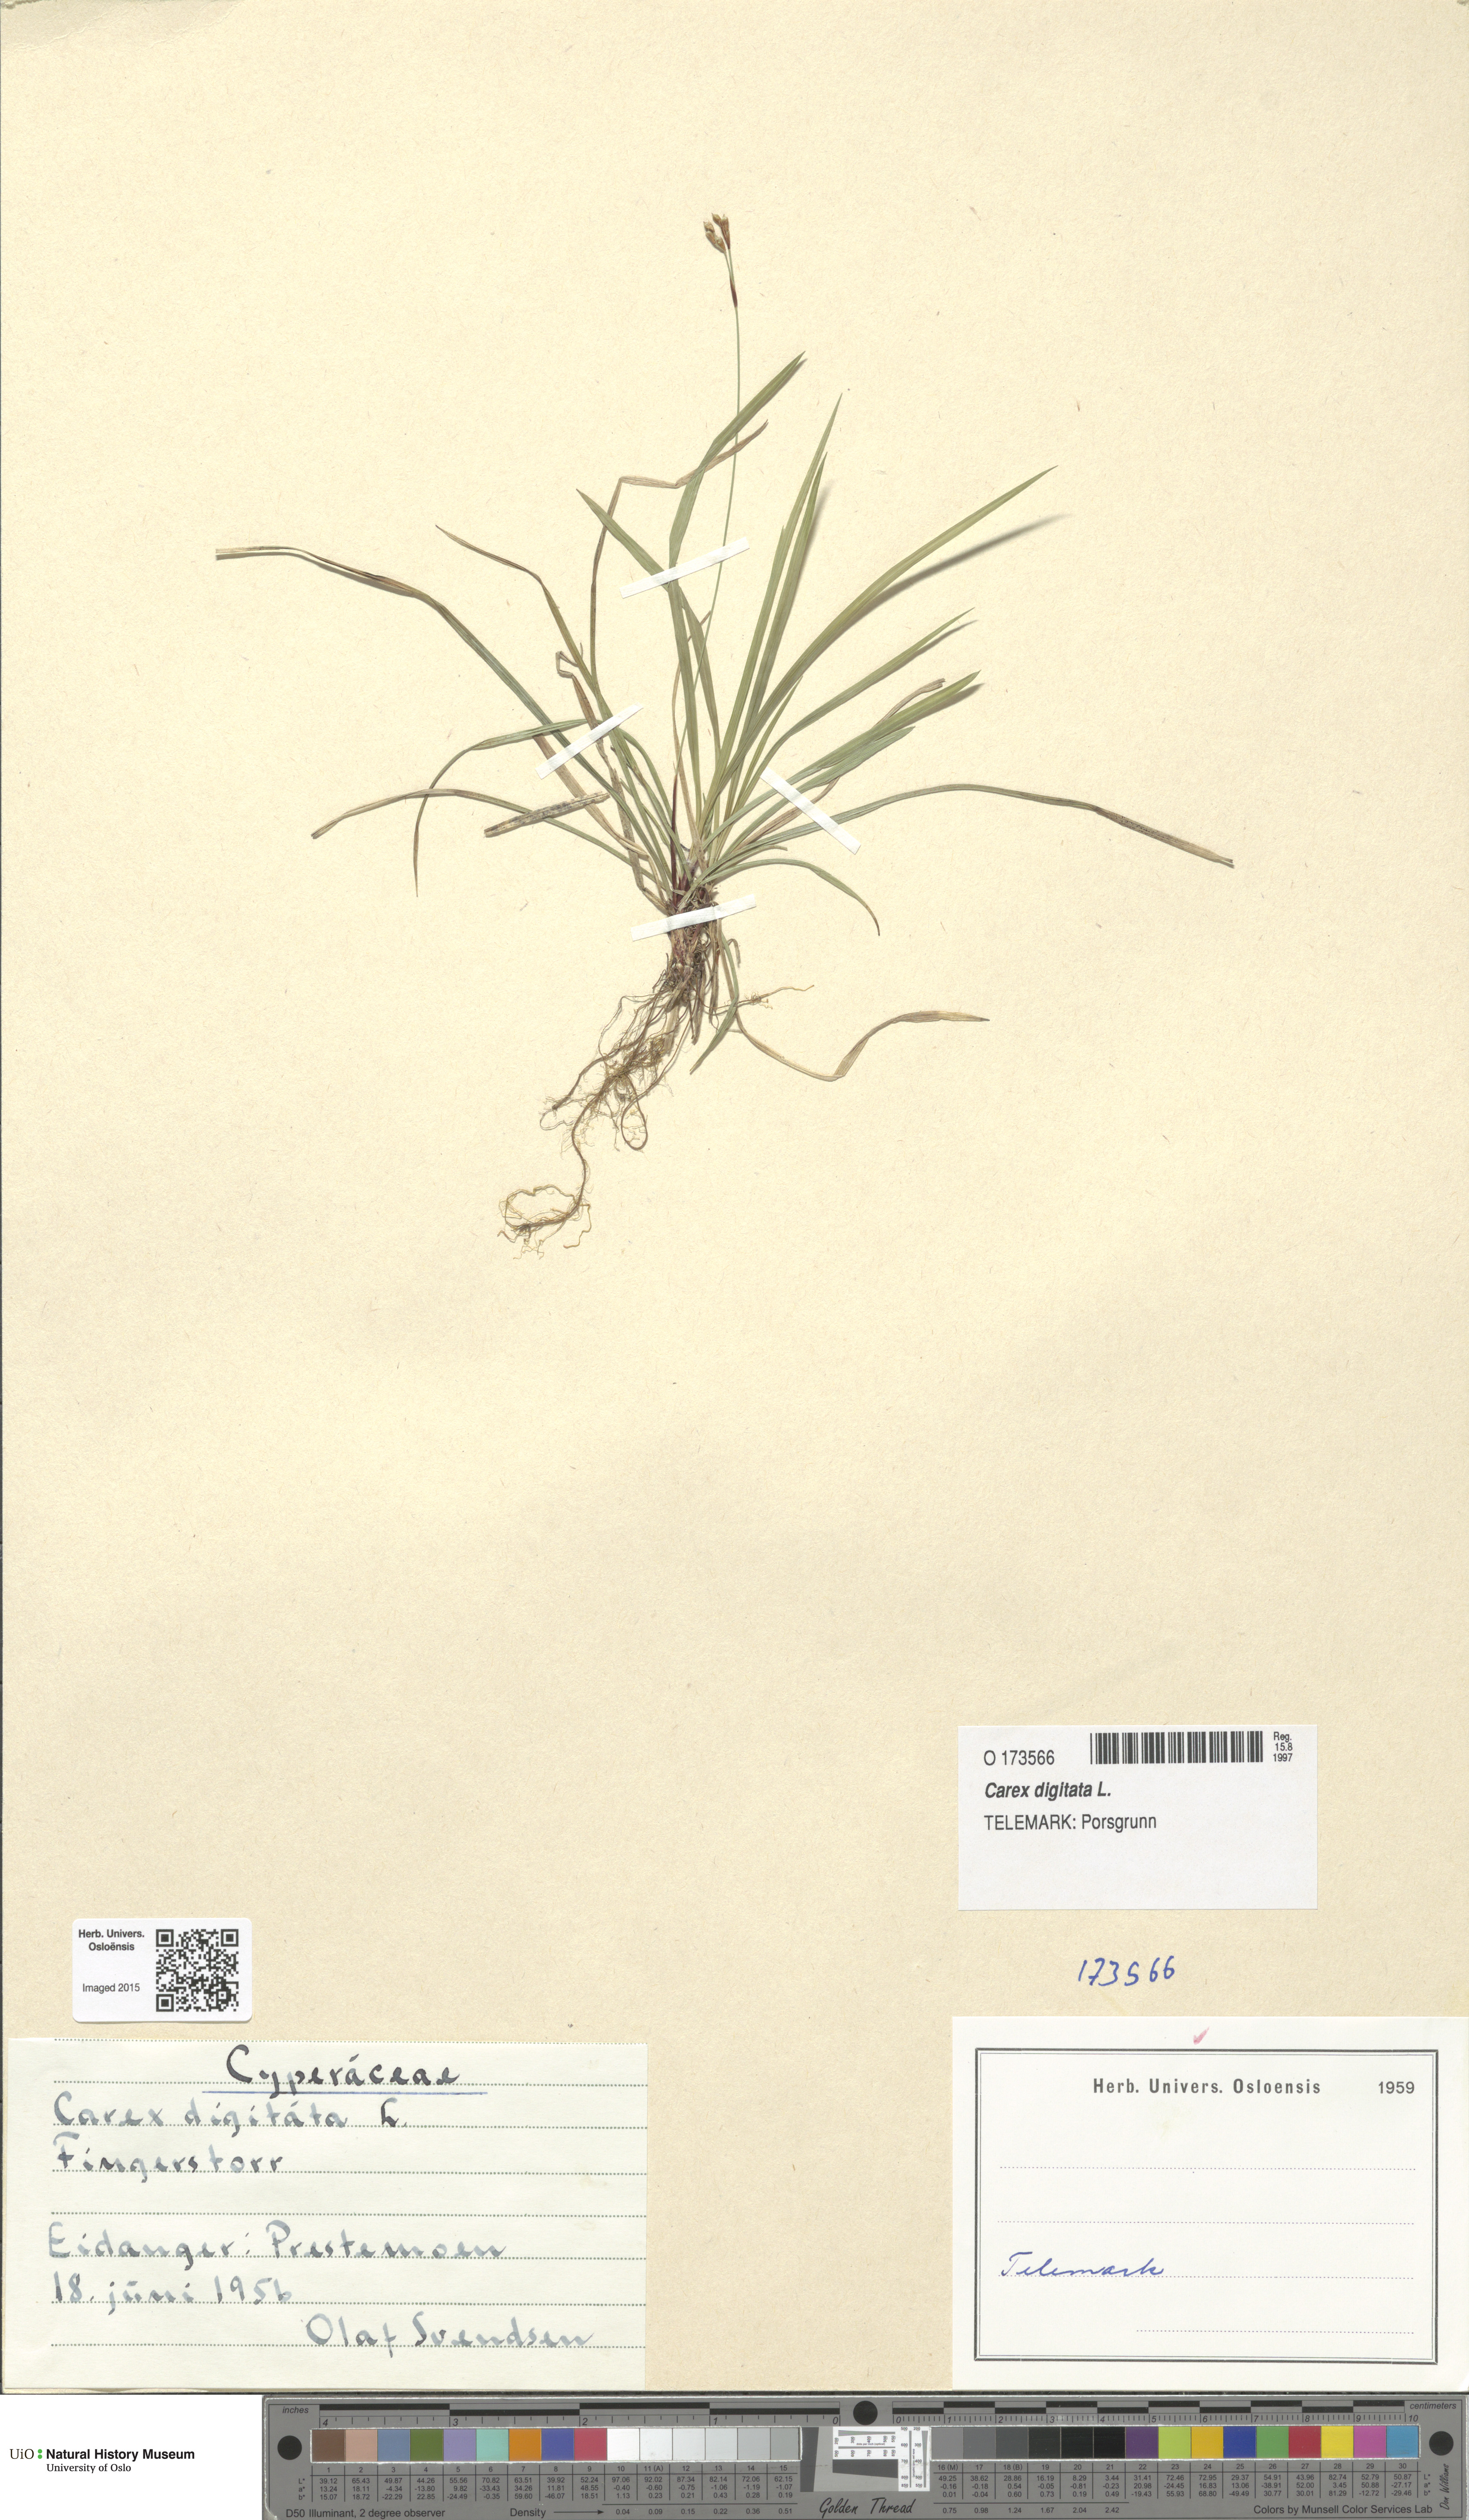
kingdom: Plantae
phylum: Tracheophyta
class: Liliopsida
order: Poales
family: Cyperaceae
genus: Carex
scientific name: Carex digitata
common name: Fingered sedge
